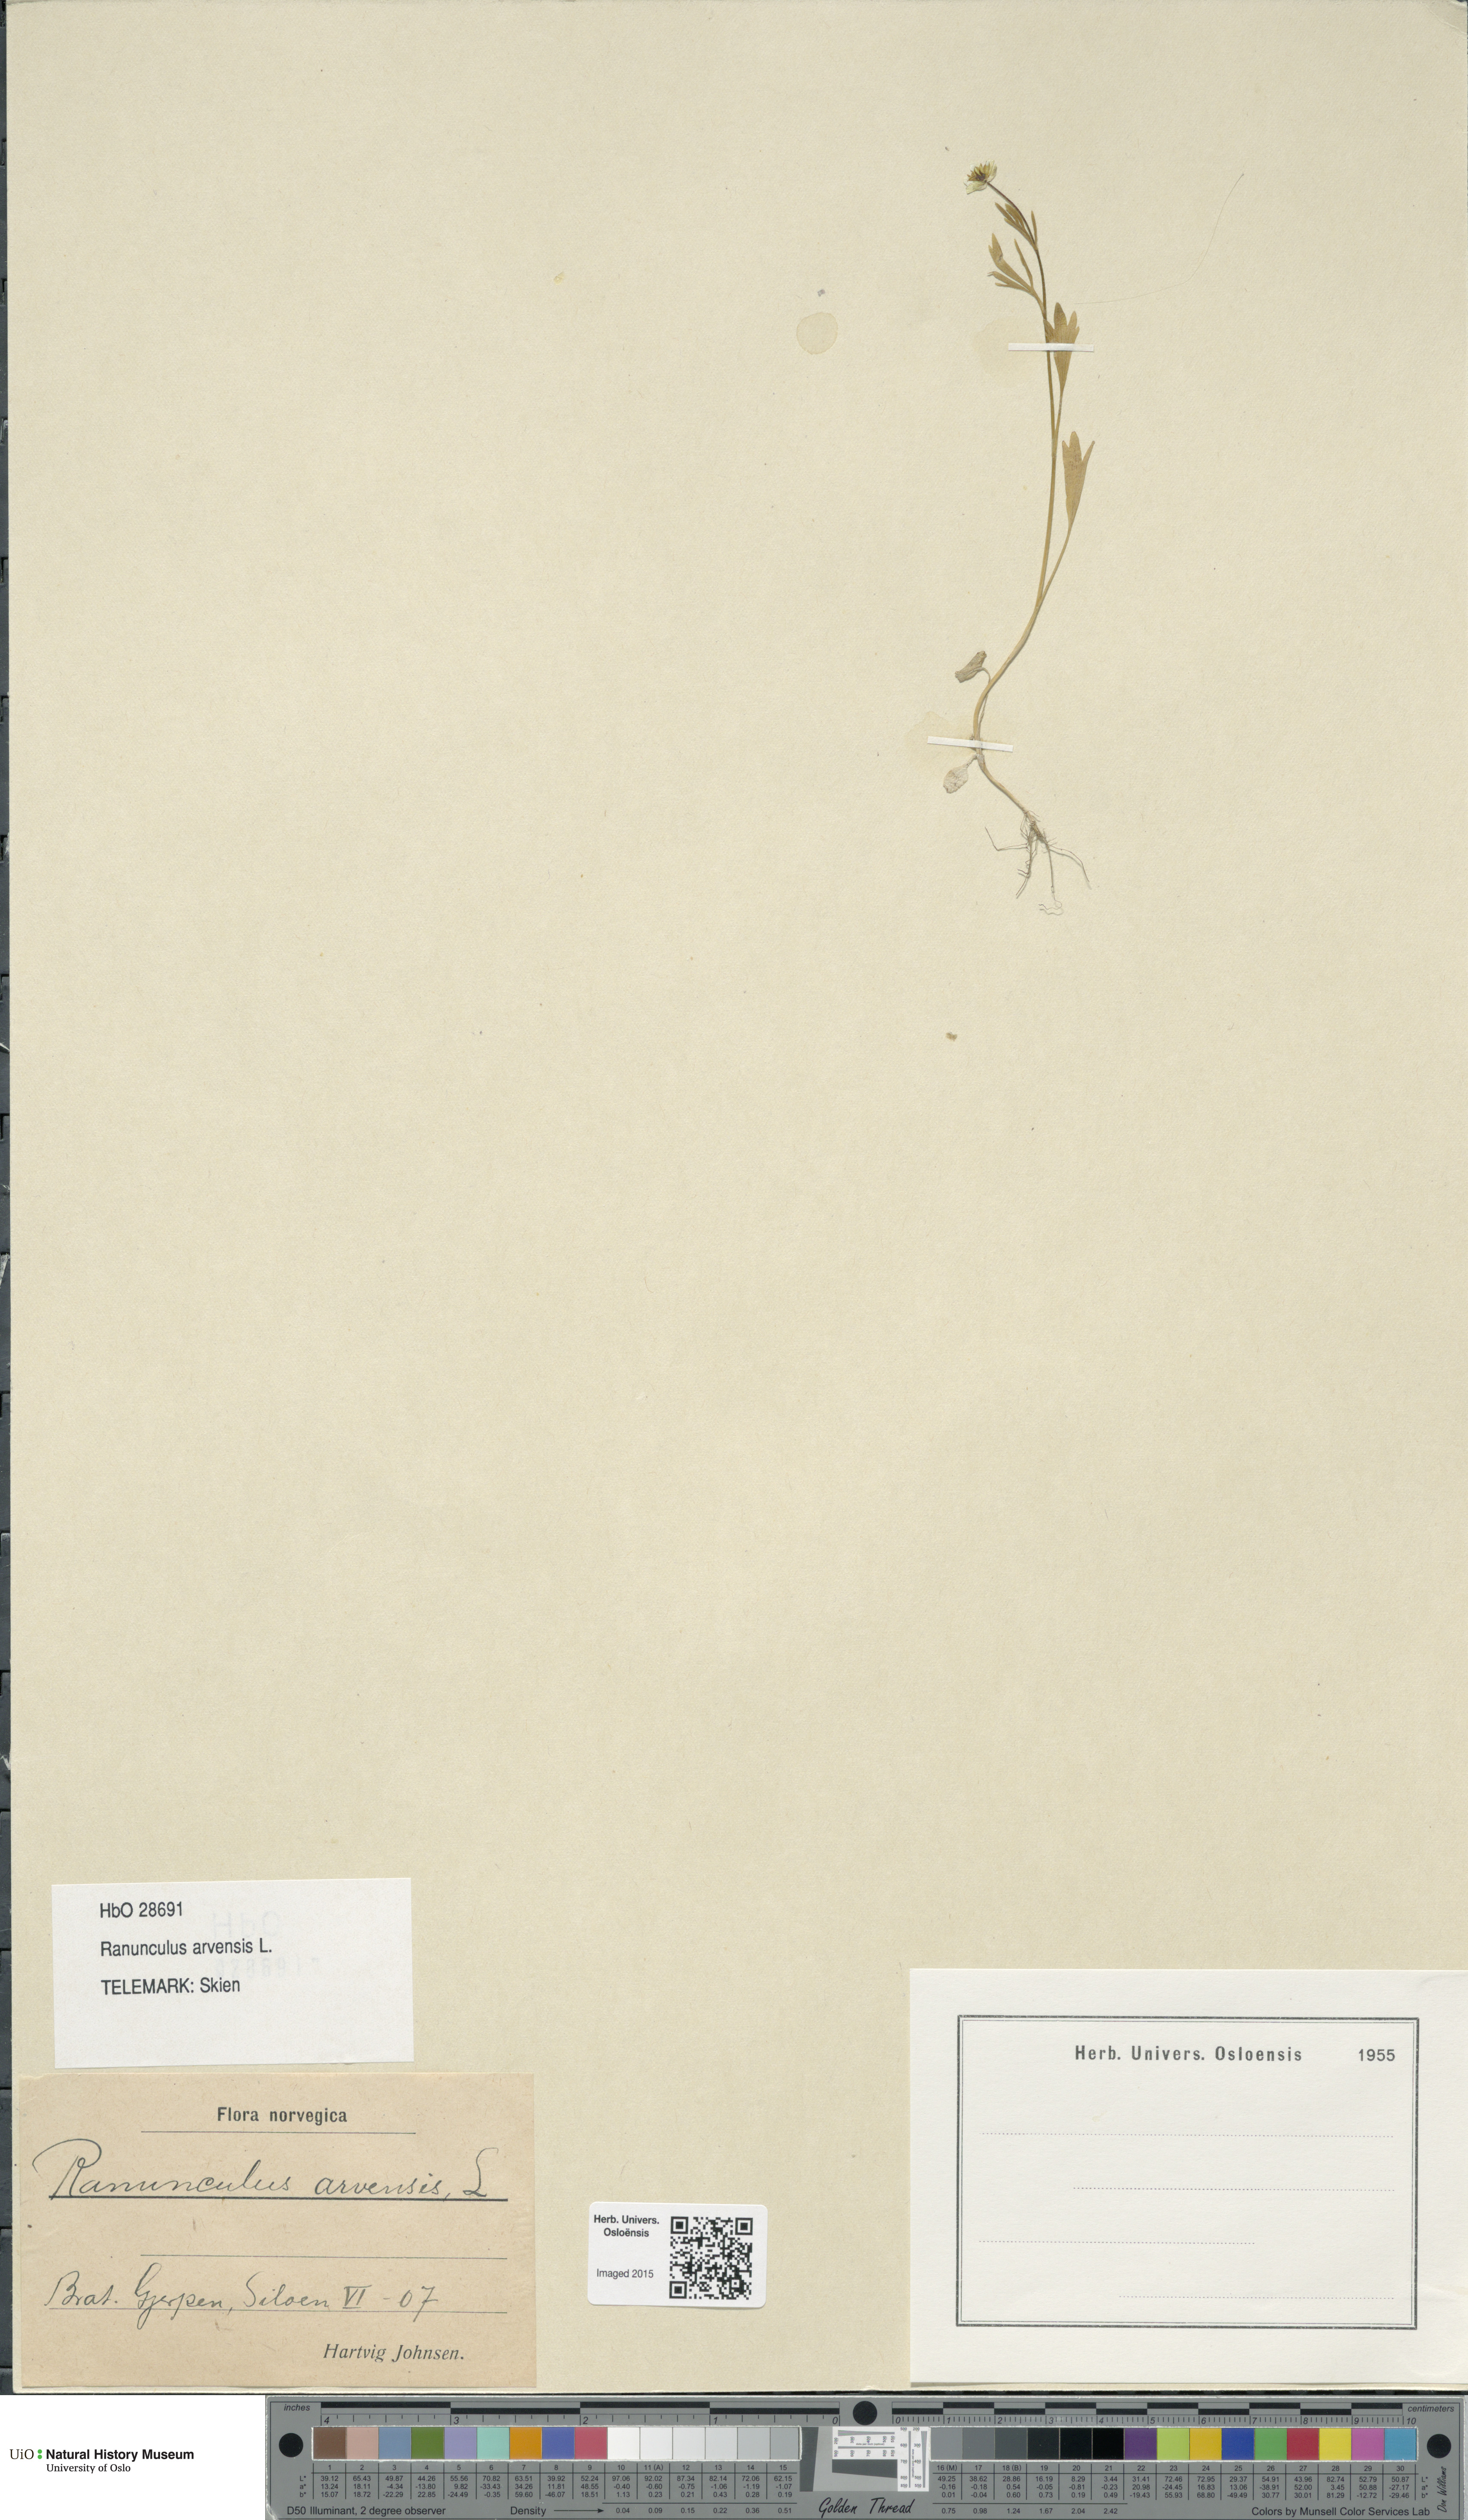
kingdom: Plantae
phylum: Tracheophyta
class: Magnoliopsida
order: Ranunculales
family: Ranunculaceae
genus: Ranunculus
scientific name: Ranunculus arvensis
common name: Corn buttercup
